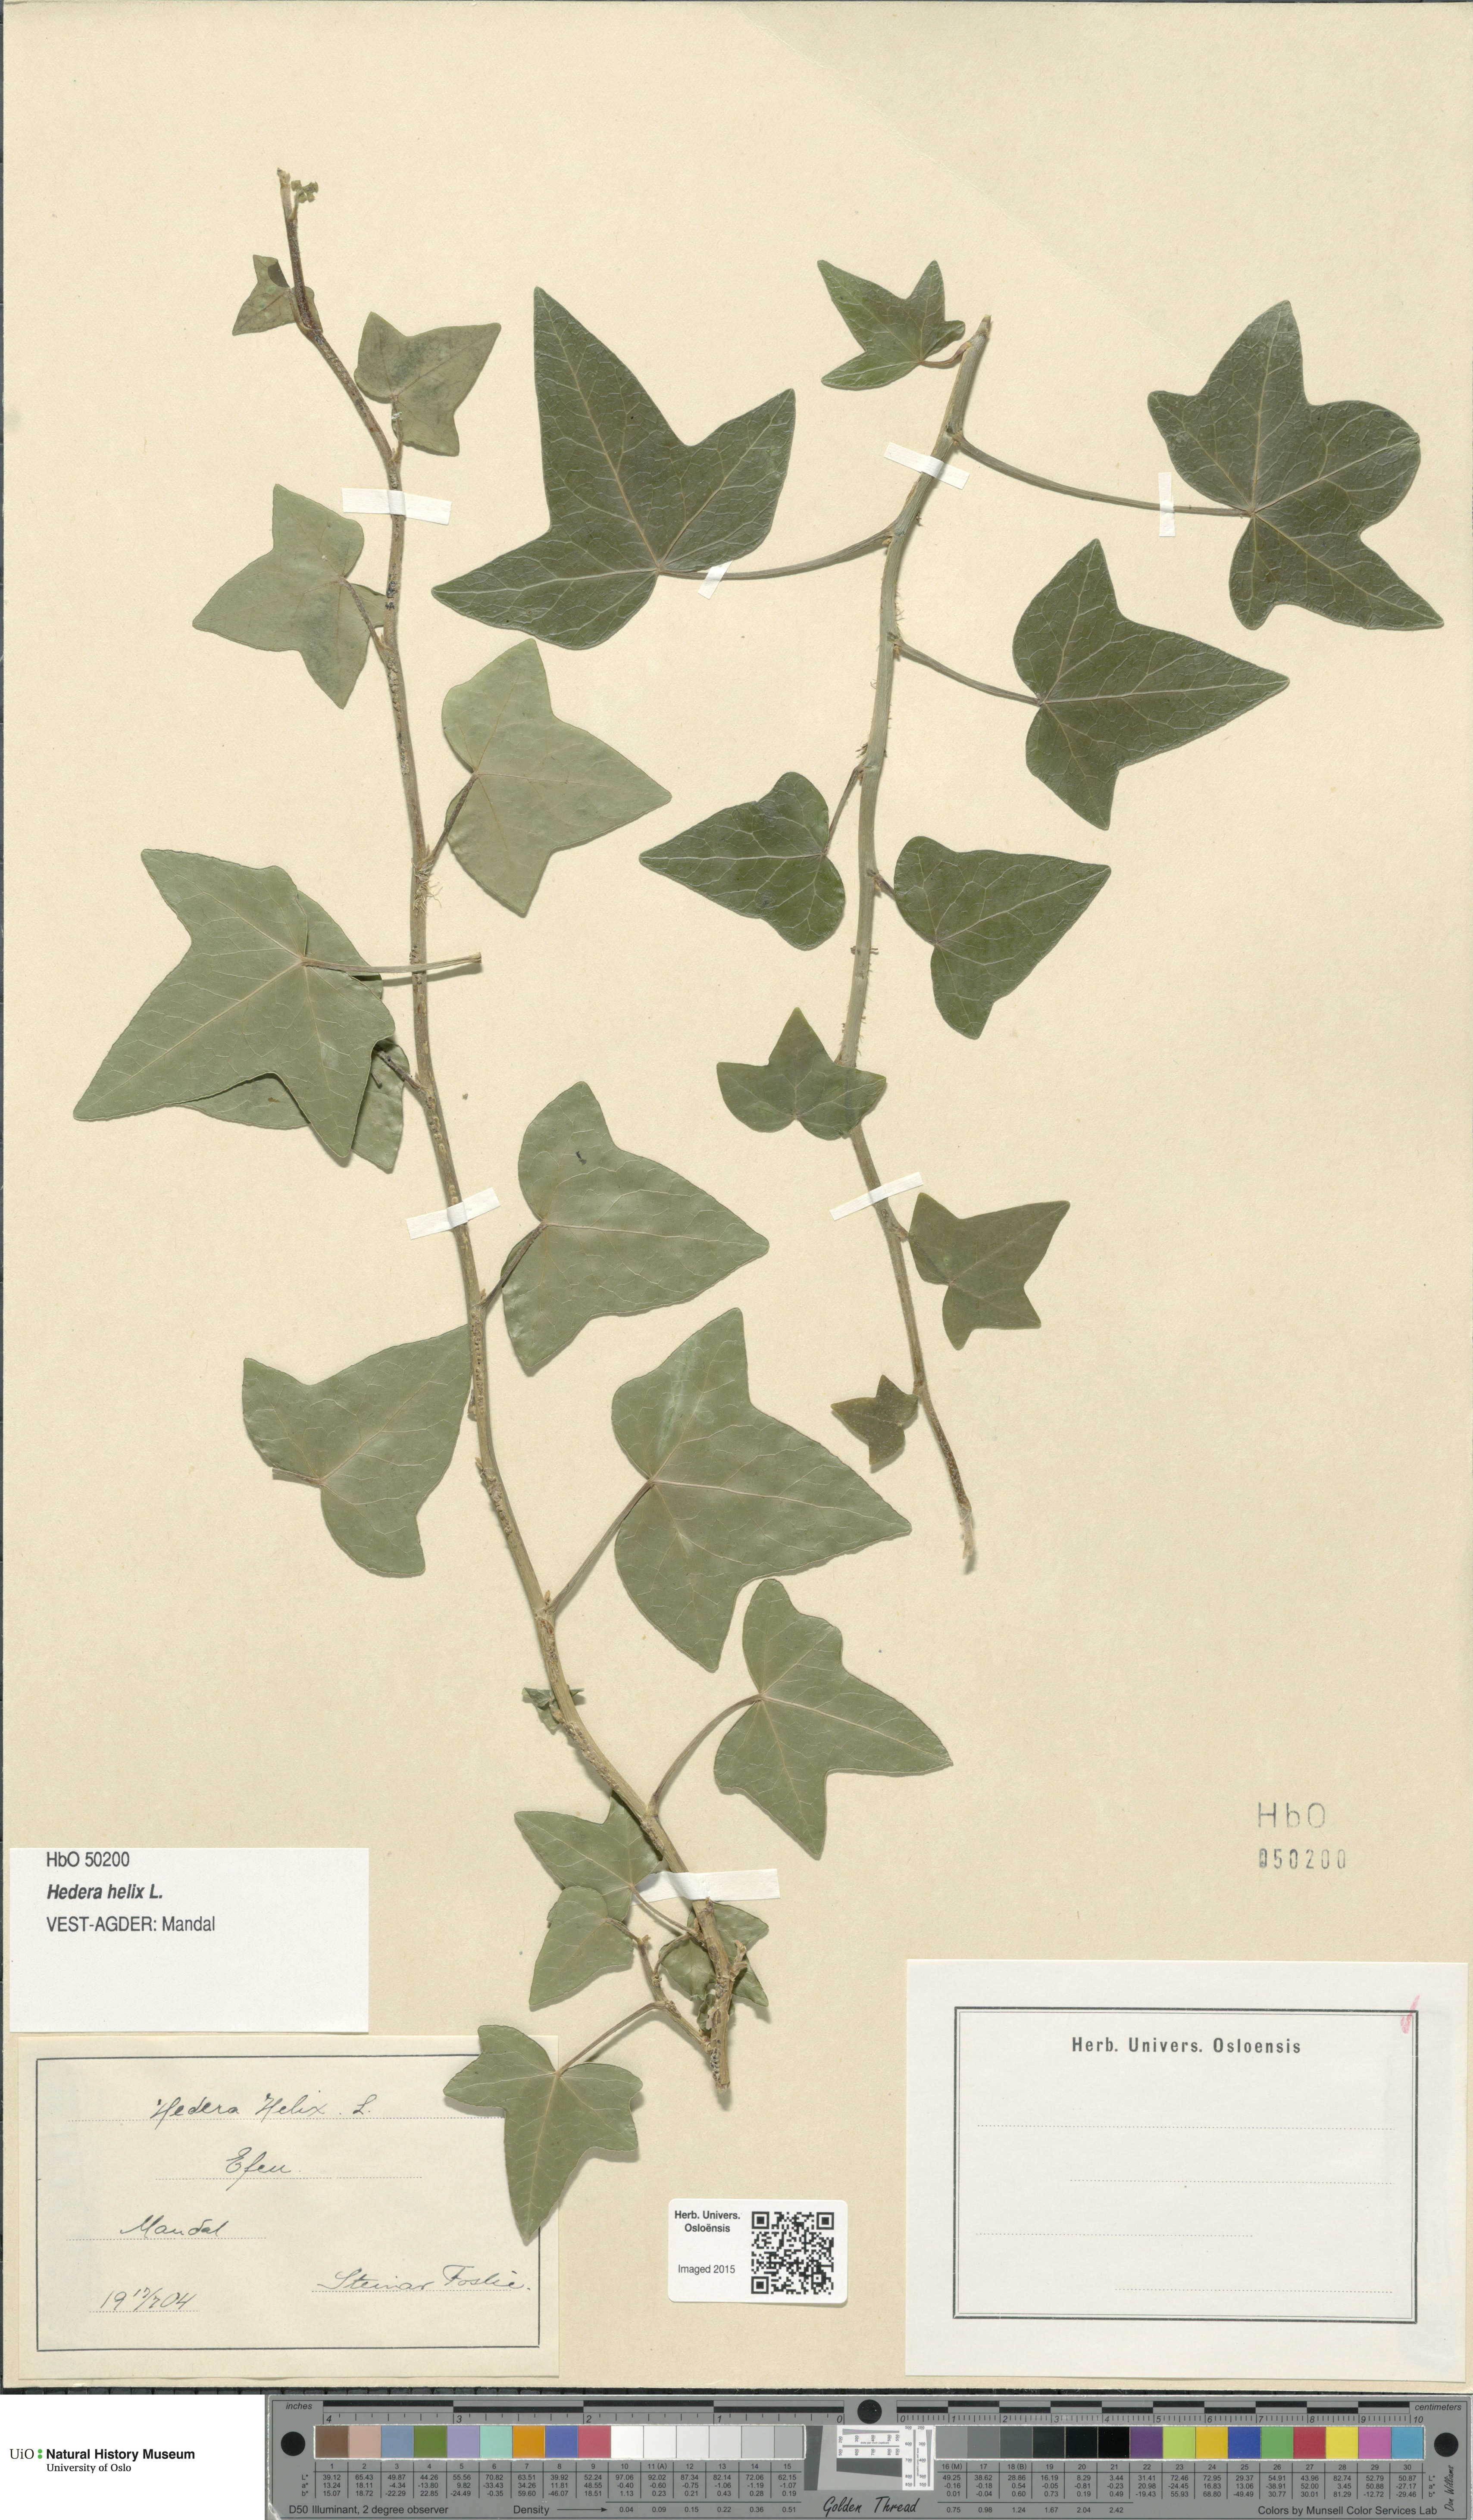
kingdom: Plantae
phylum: Tracheophyta
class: Magnoliopsida
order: Apiales
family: Araliaceae
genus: Hedera
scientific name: Hedera helix
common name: Ivy
